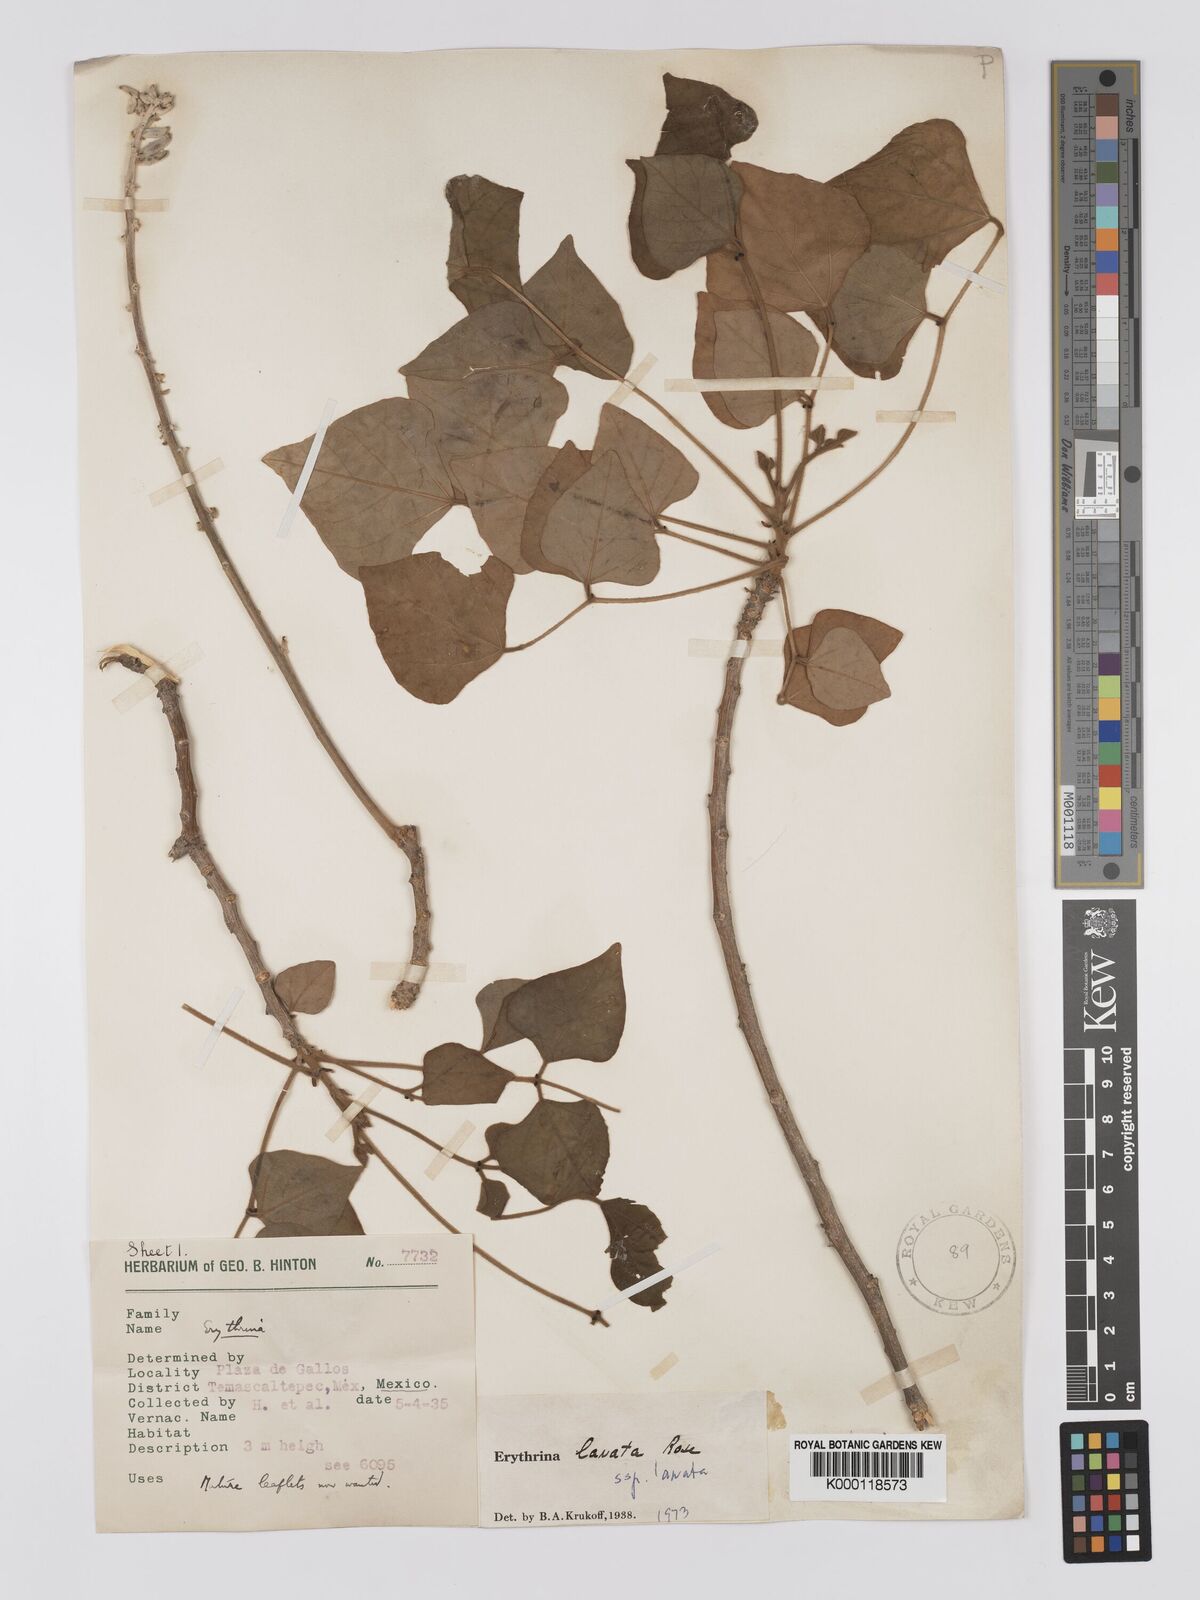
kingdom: Plantae
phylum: Tracheophyta
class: Magnoliopsida
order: Fabales
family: Fabaceae
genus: Erythrina
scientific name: Erythrina lanata
